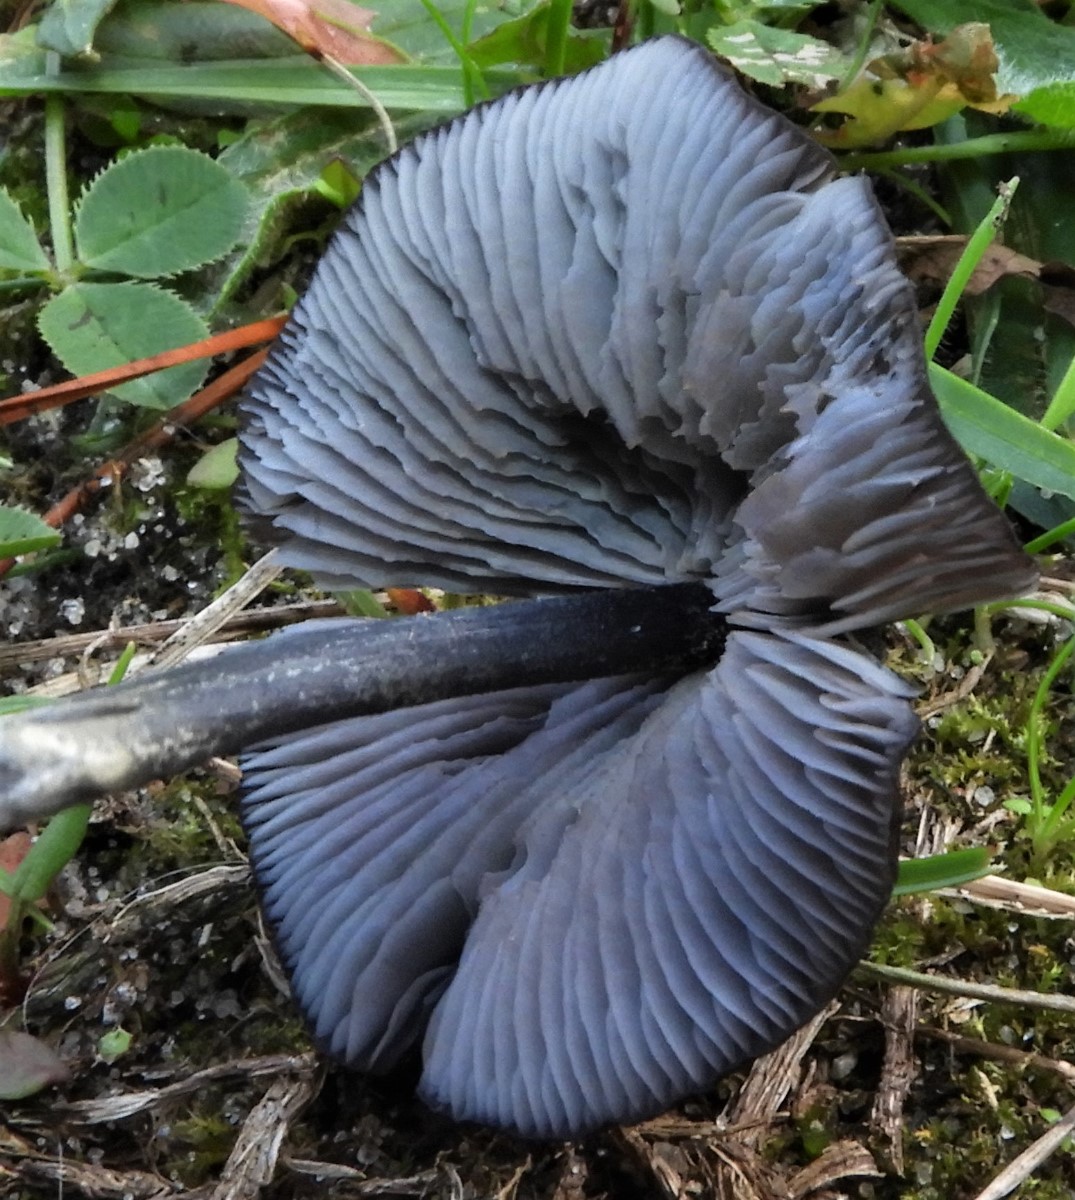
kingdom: Fungi
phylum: Basidiomycota
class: Agaricomycetes
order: Agaricales
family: Entolomataceae
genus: Entoloma
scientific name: Entoloma chalybeum
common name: blåbladet rødblad
